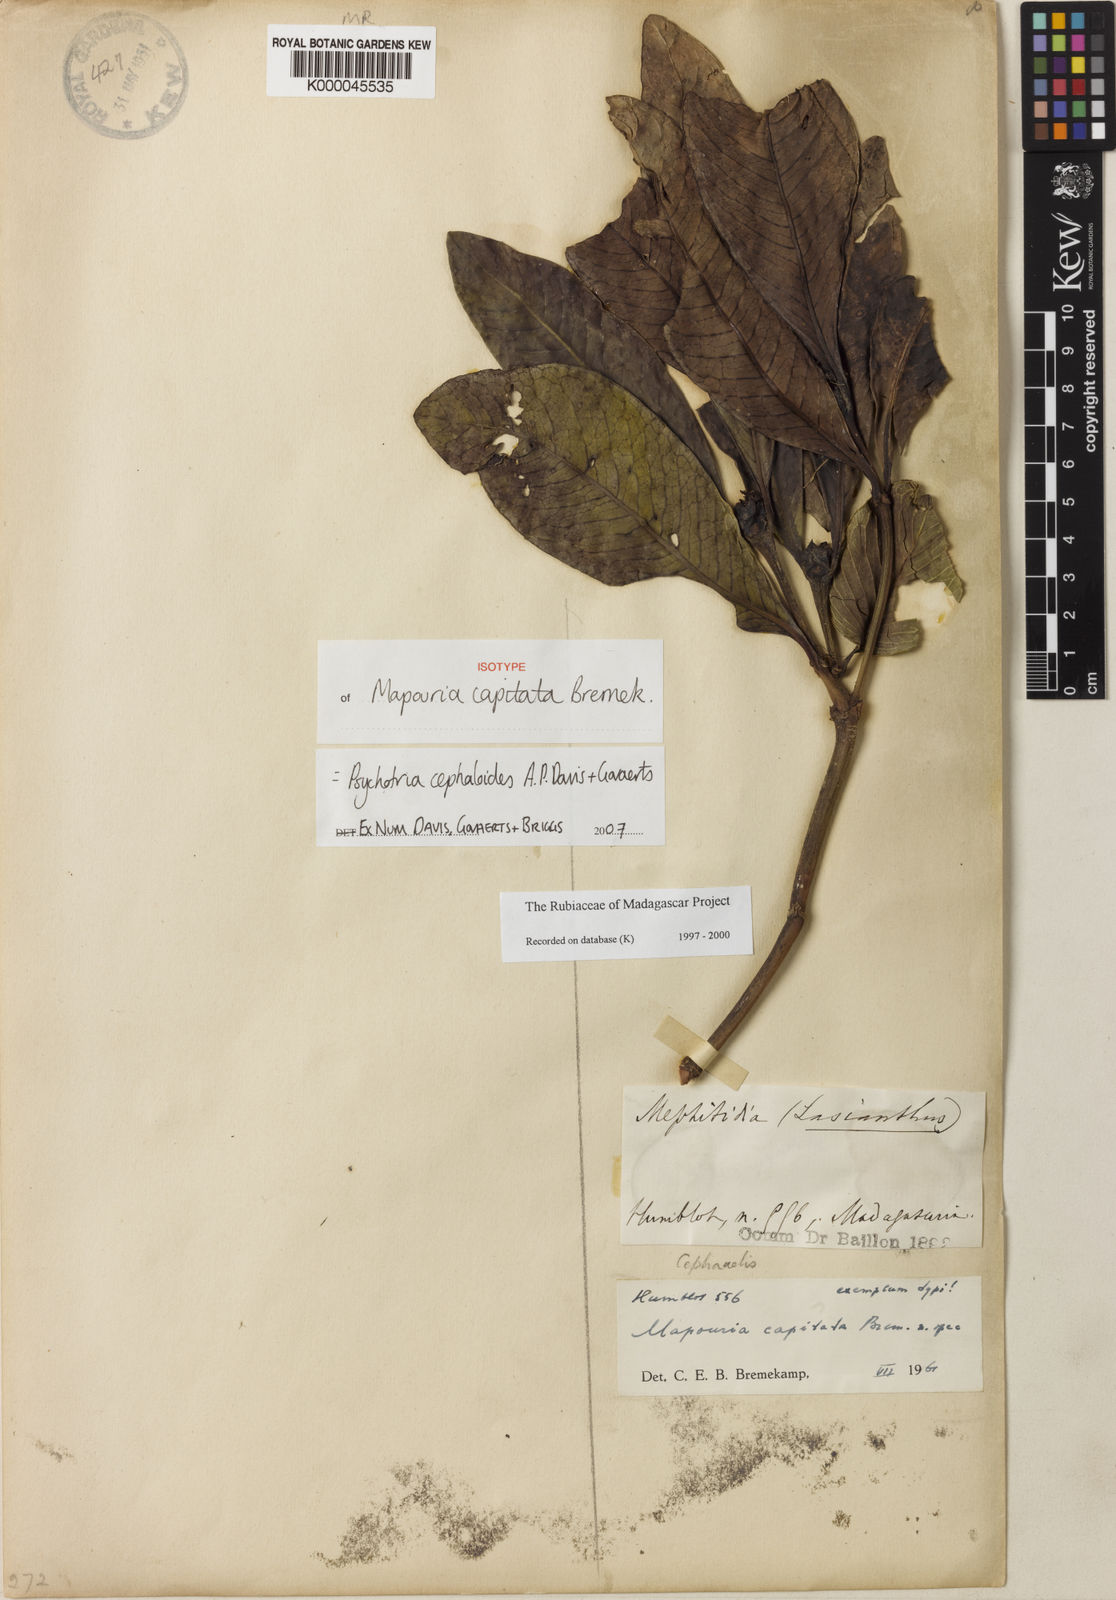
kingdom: Plantae
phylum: Tracheophyta
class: Magnoliopsida
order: Gentianales
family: Rubiaceae
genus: Psychotria
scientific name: Psychotria cephaloides
